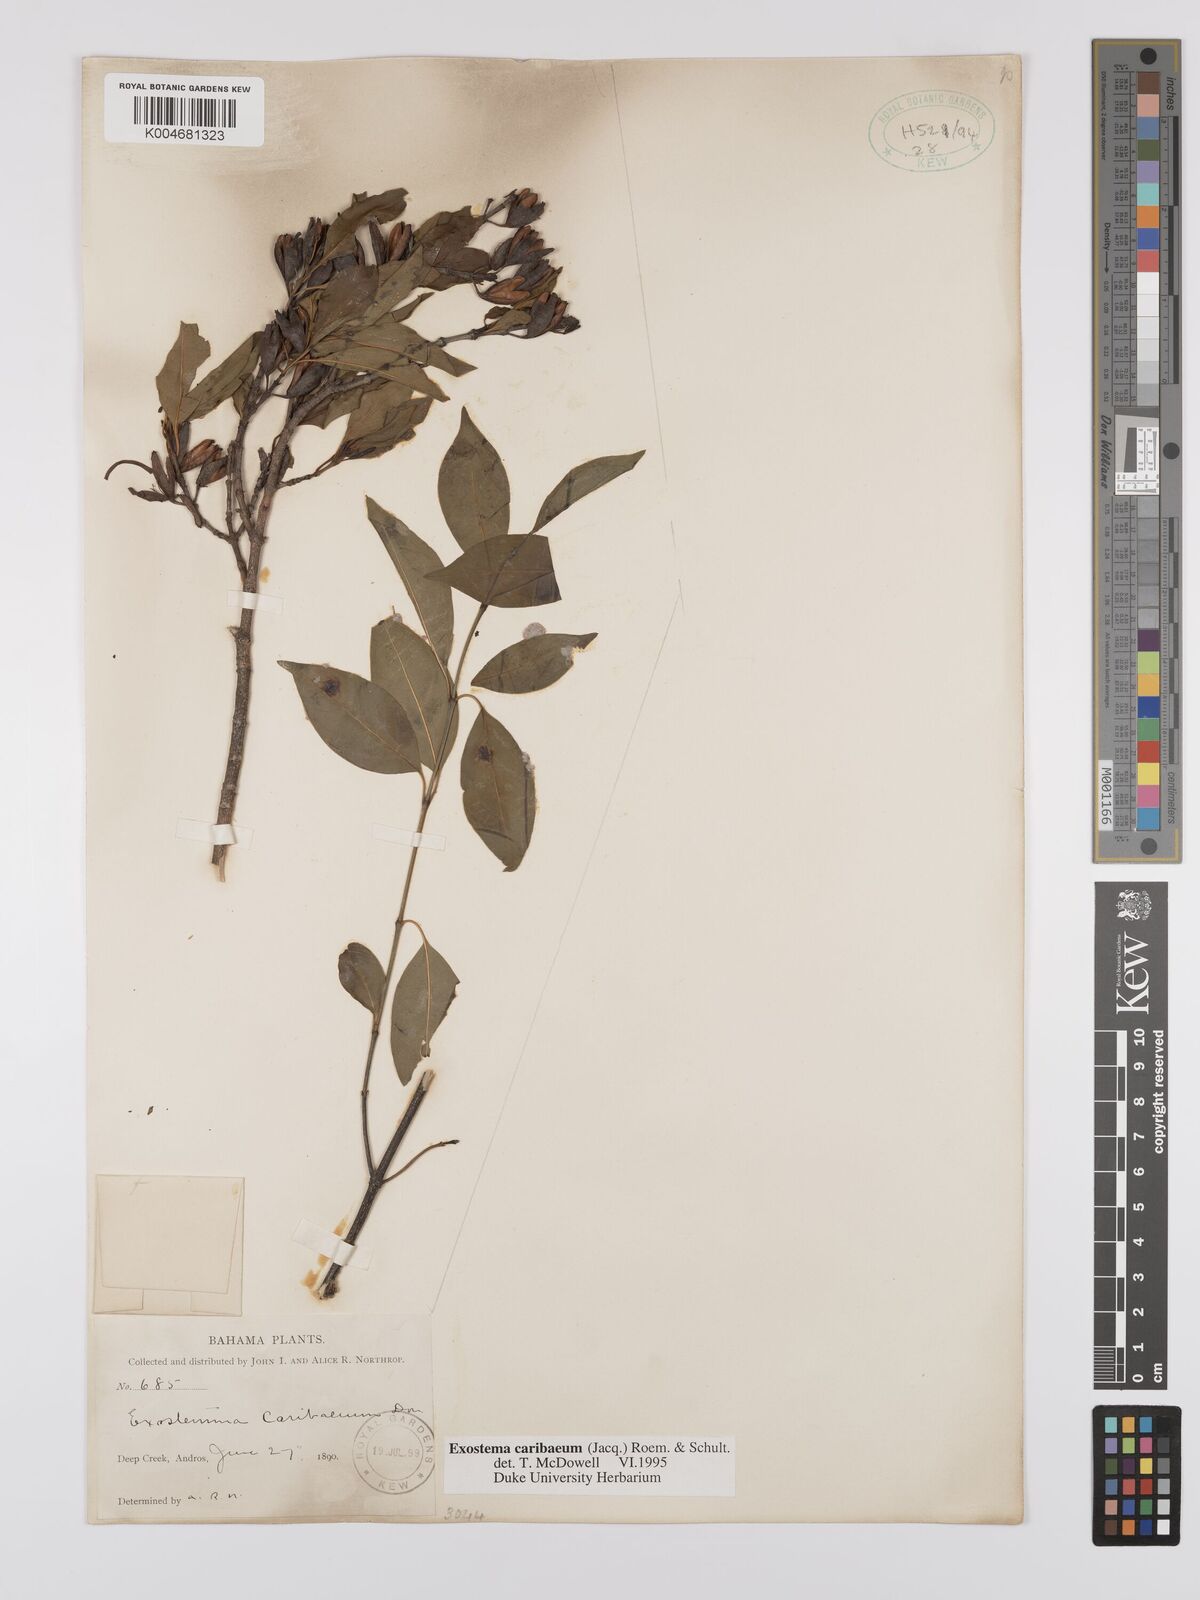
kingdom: Plantae
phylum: Tracheophyta
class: Magnoliopsida
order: Gentianales
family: Rubiaceae
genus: Exostema
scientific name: Exostema caribaeum
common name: Princewood
